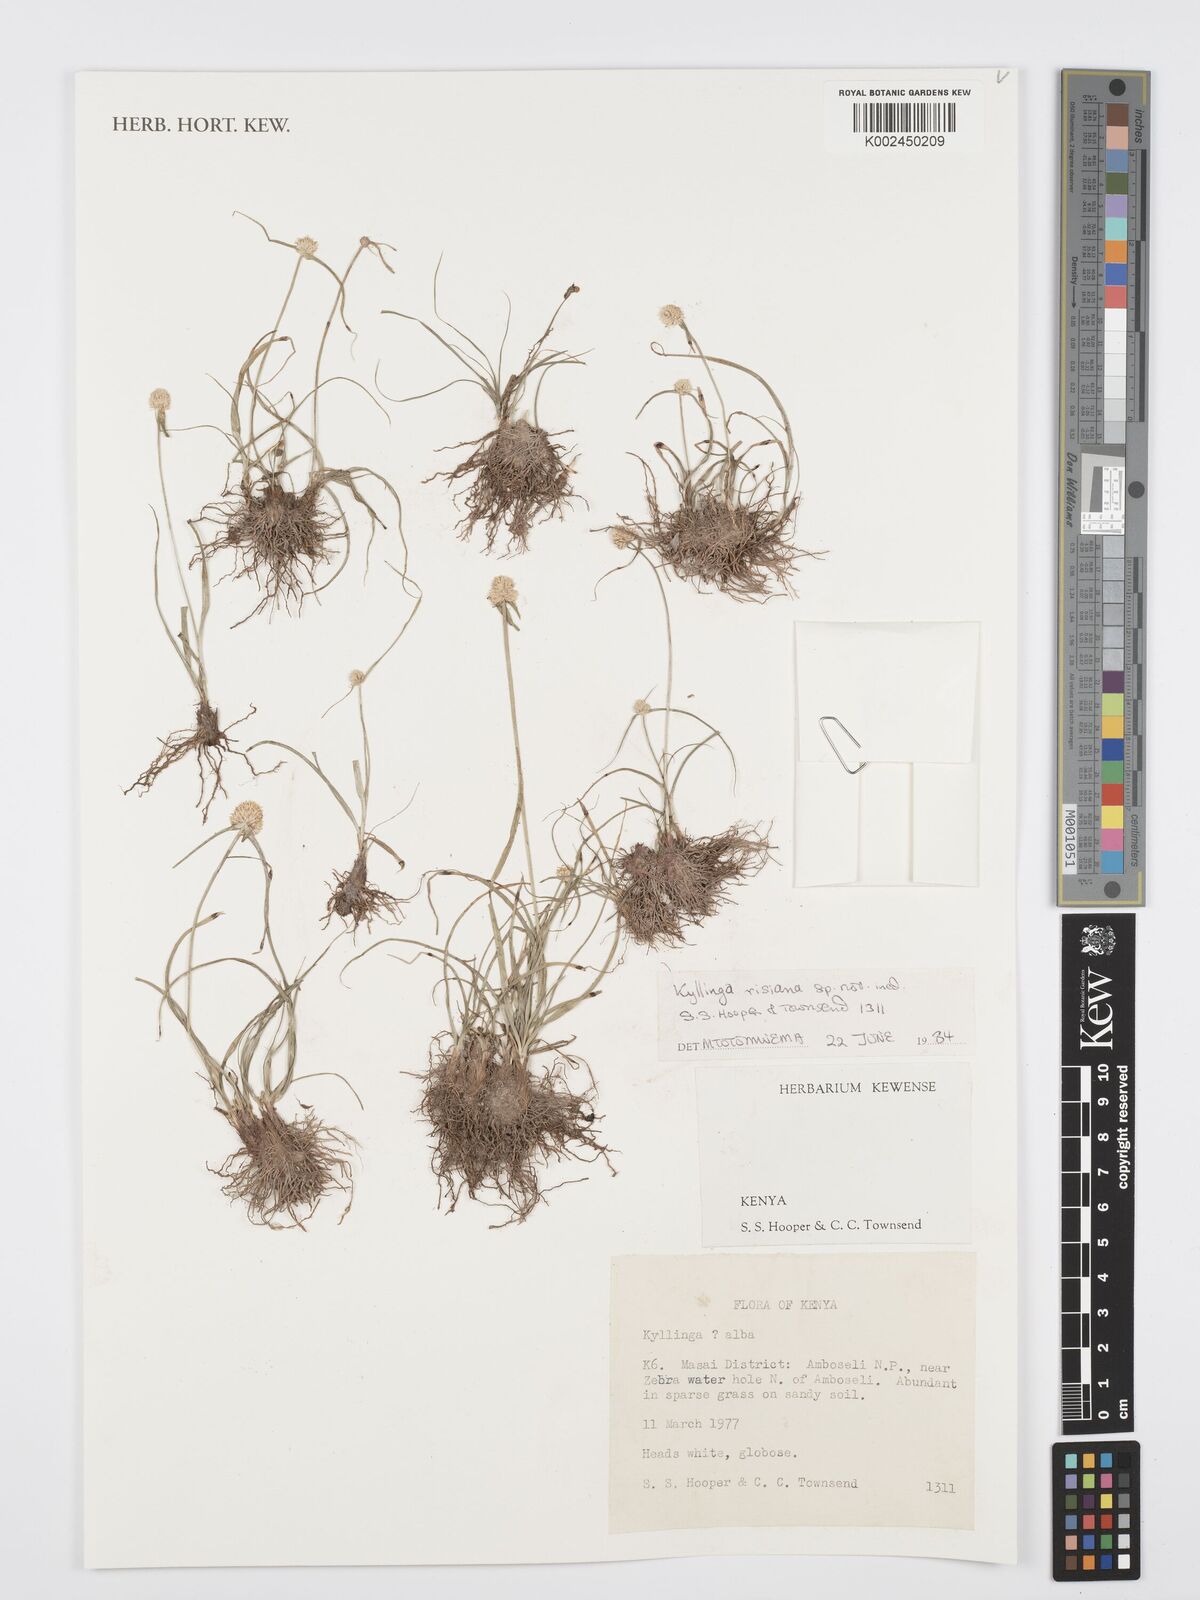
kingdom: Plantae
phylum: Tracheophyta
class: Liliopsida
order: Poales
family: Cyperaceae
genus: Cyperus
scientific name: Cyperus
